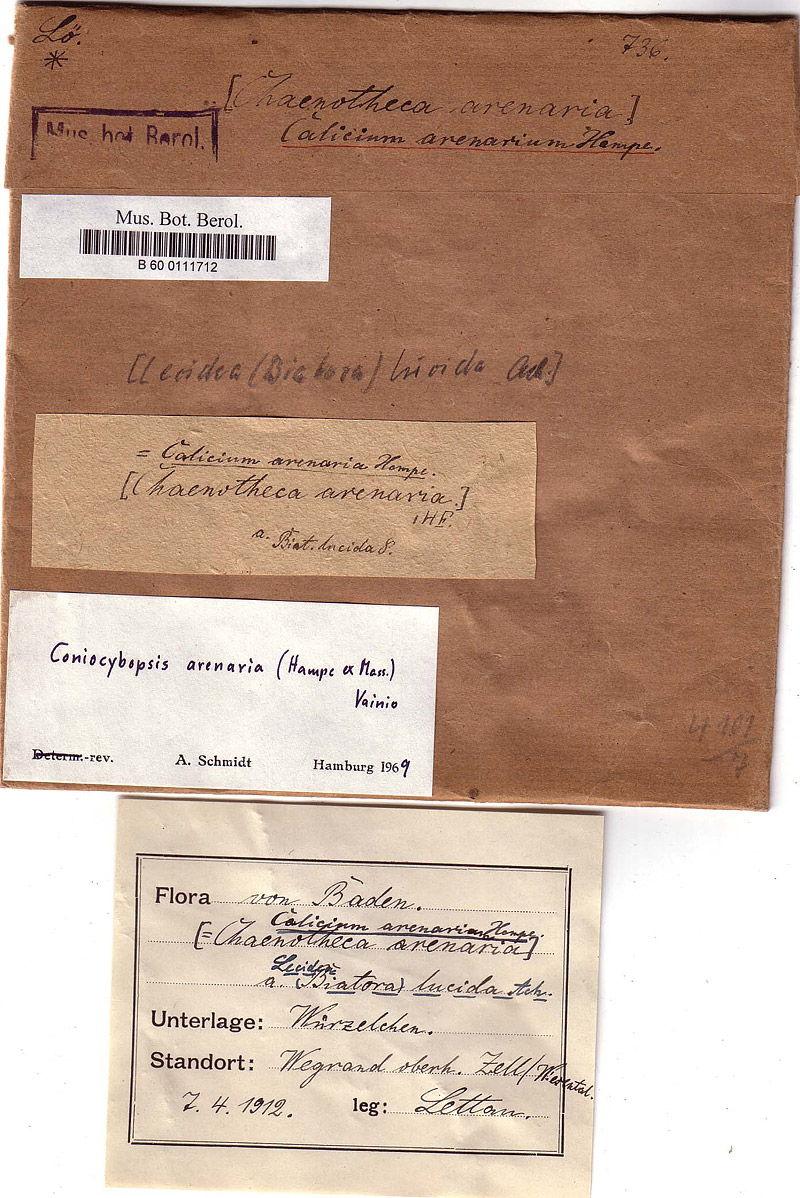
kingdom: Fungi
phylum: Ascomycota
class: Lecanoromycetes
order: Pertusariales
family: Microcaliciaceae
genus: Microcalicium
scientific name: Microcalicium arenarium
